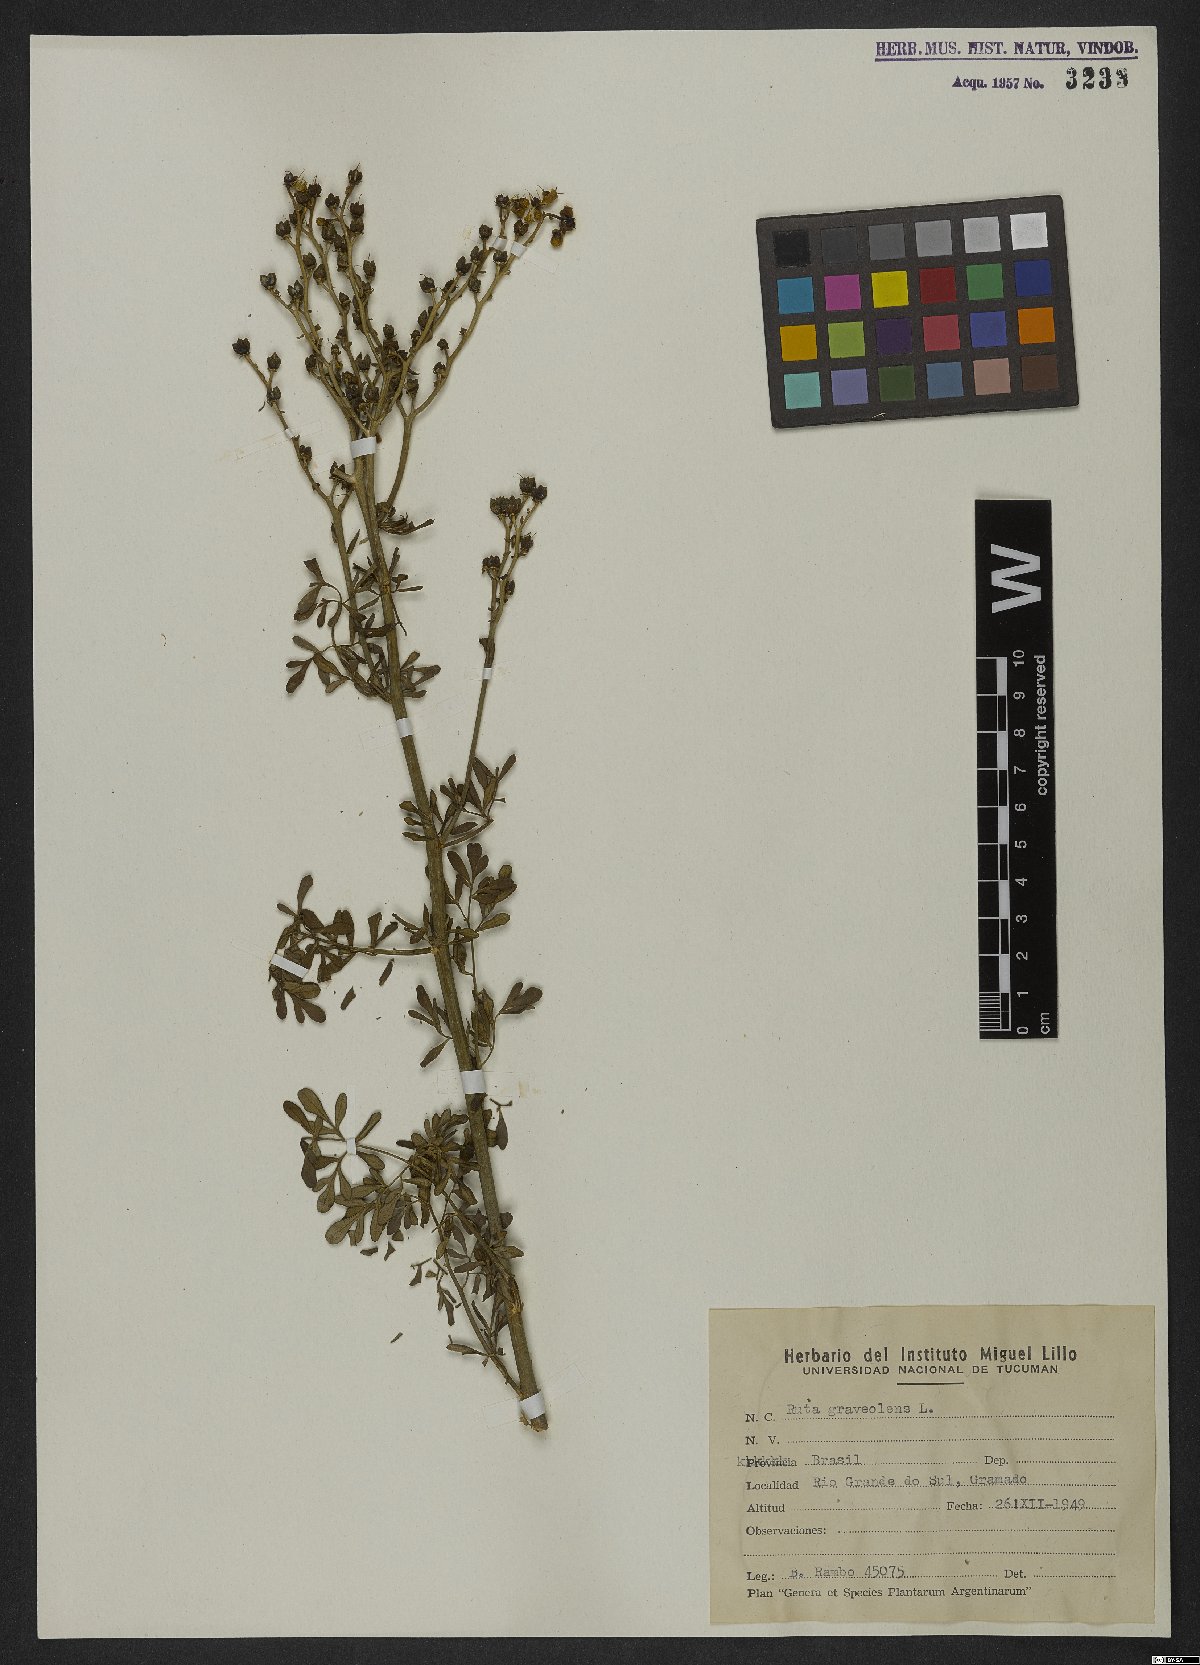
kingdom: Plantae
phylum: Tracheophyta
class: Magnoliopsida
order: Sapindales
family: Rutaceae
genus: Ruta
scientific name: Ruta graveolens
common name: Common rue
